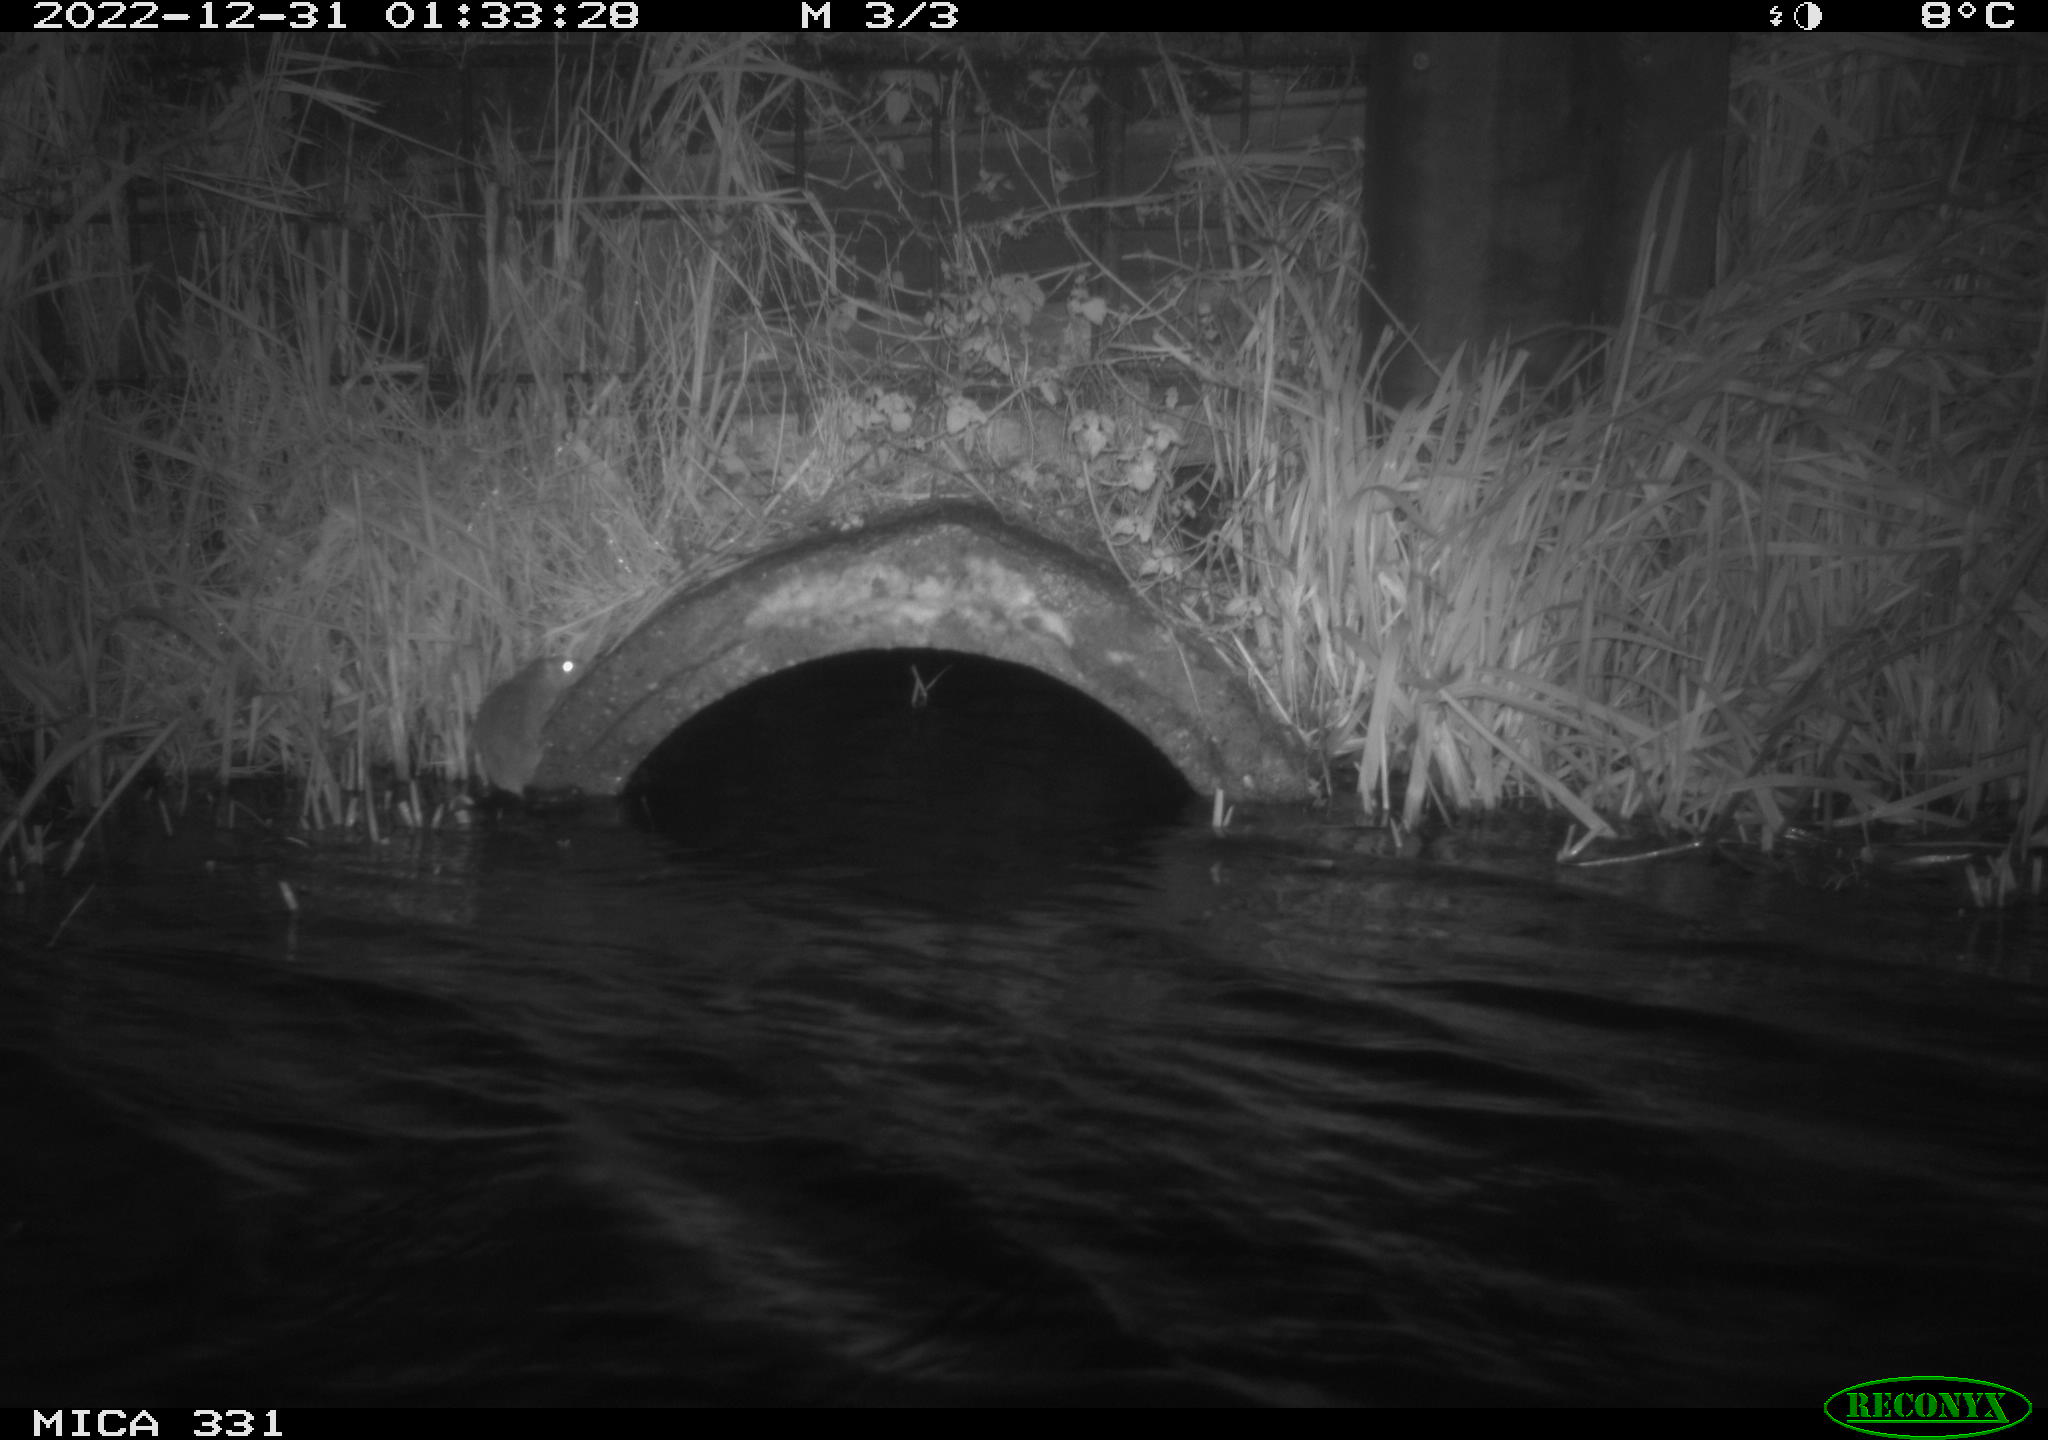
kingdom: Animalia
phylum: Chordata
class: Mammalia
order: Rodentia
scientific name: Rodentia
